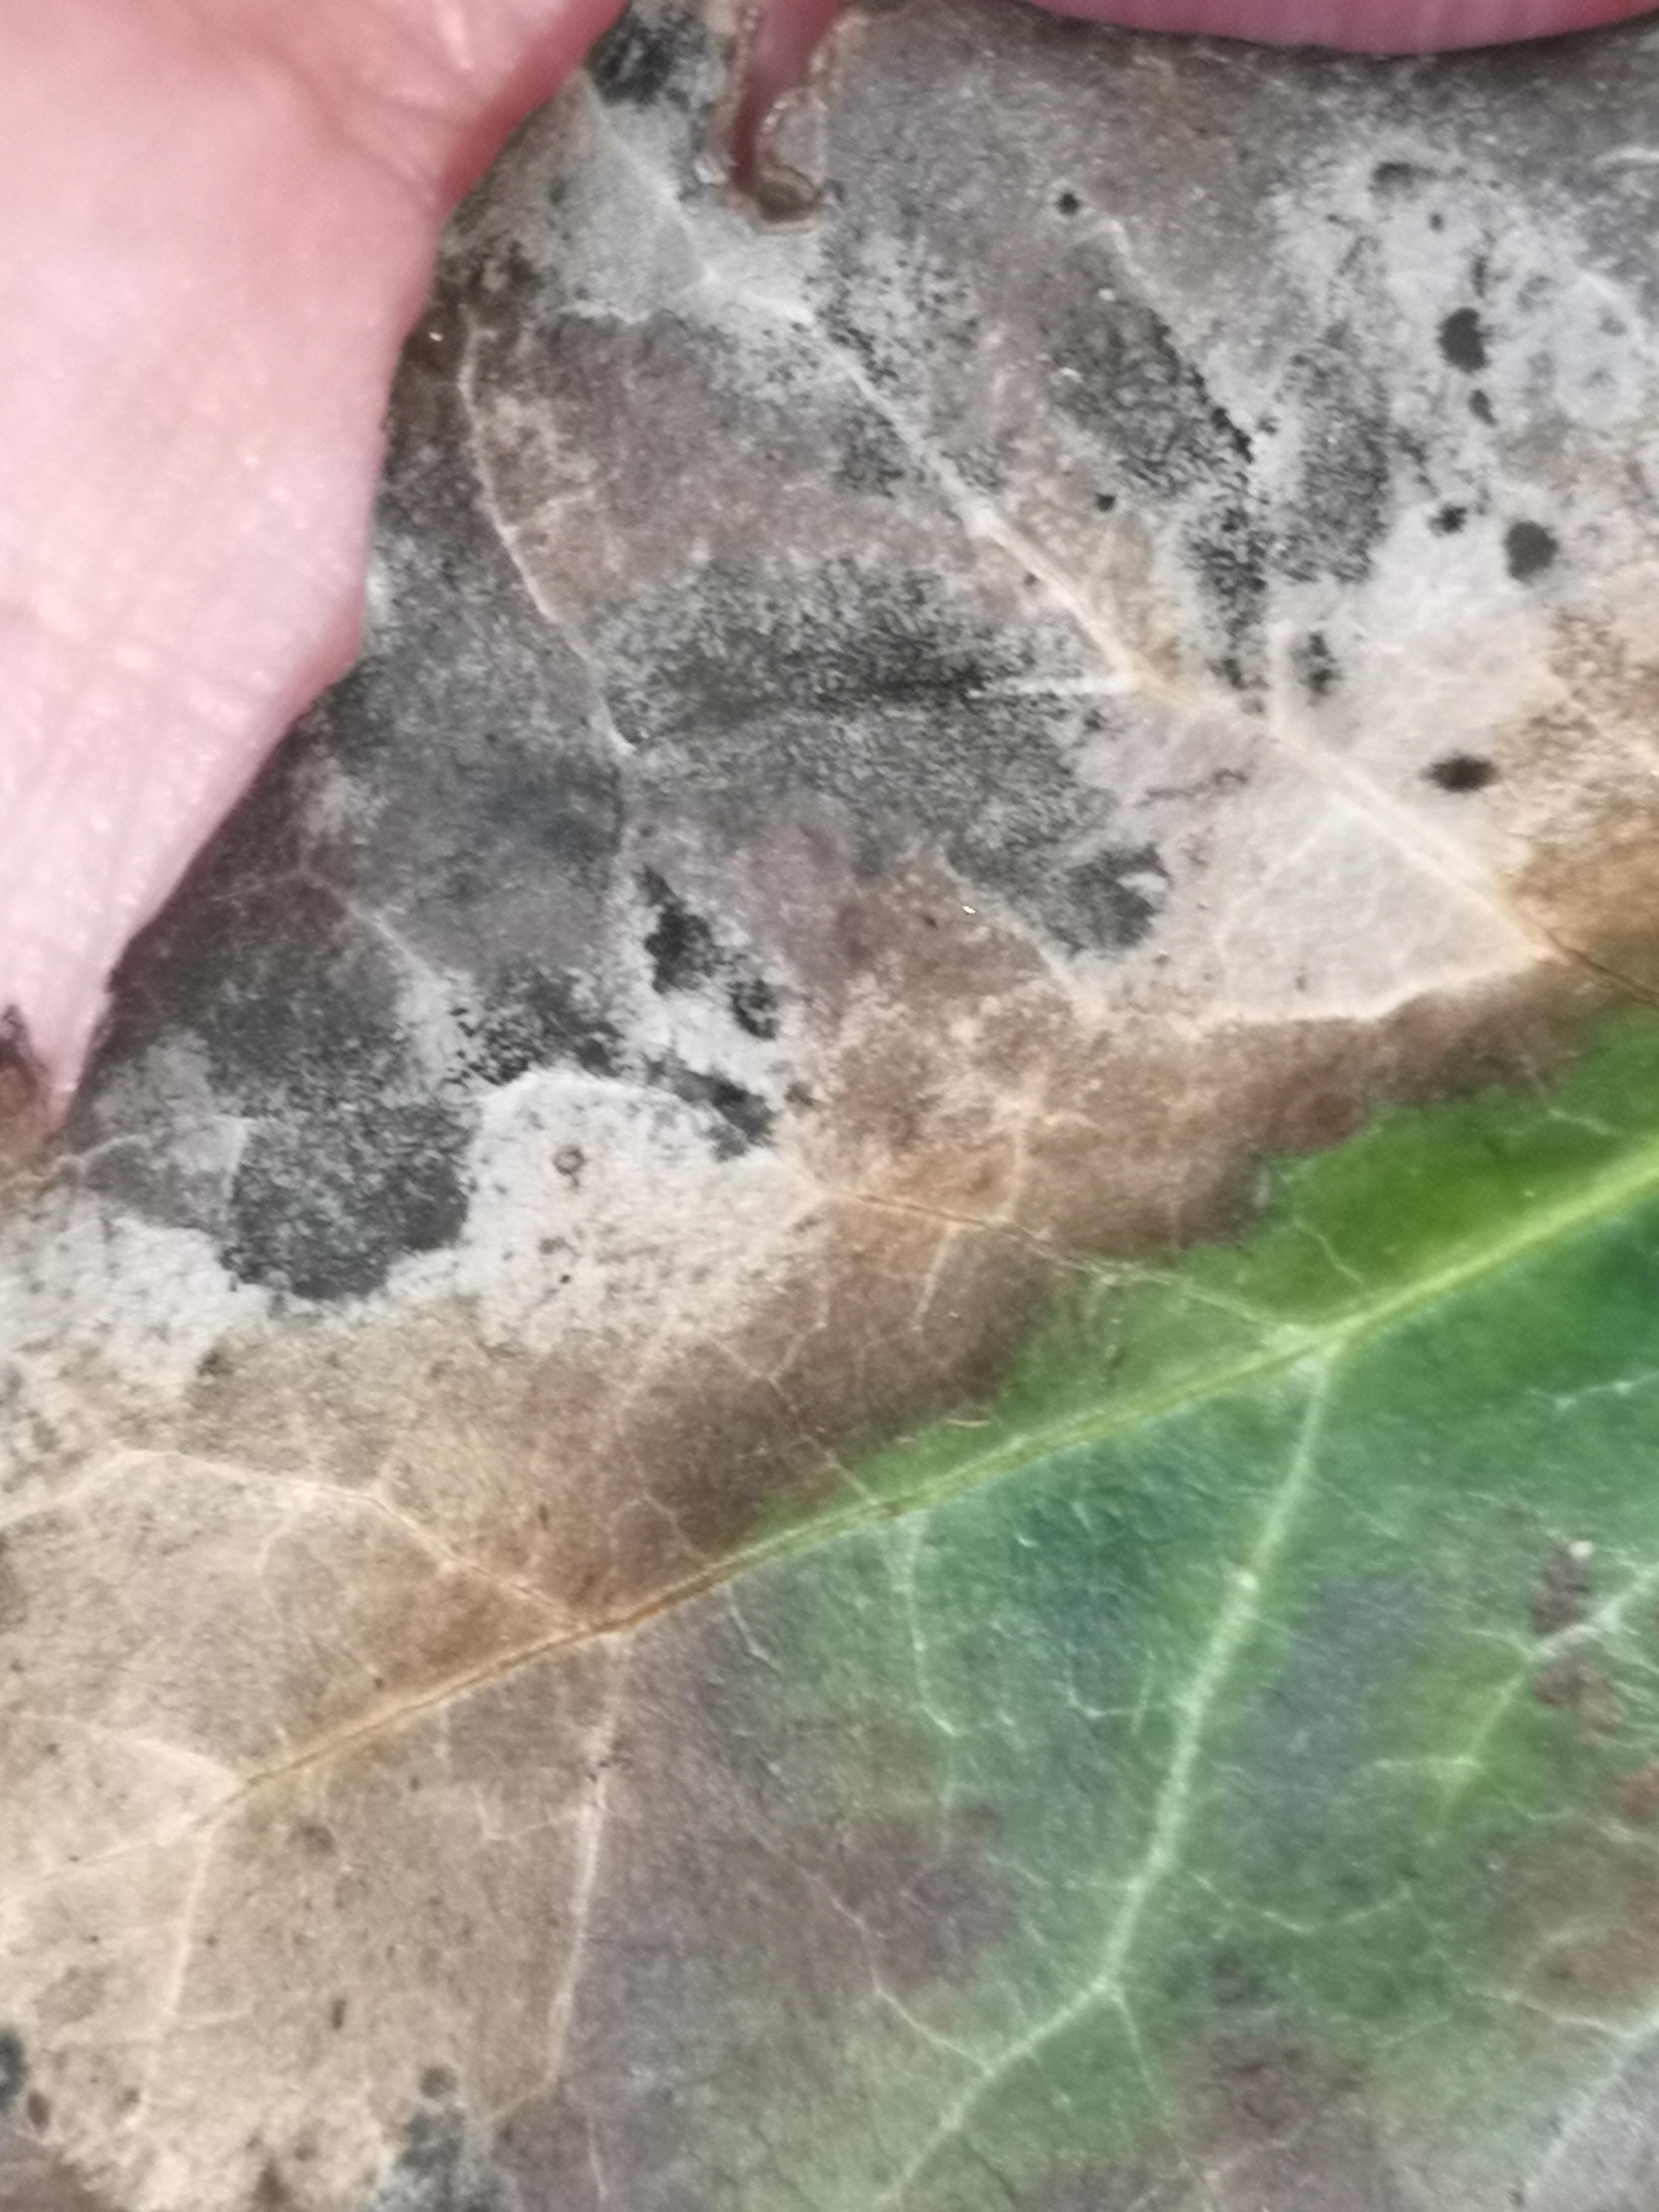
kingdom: Fungi
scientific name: Fungi
